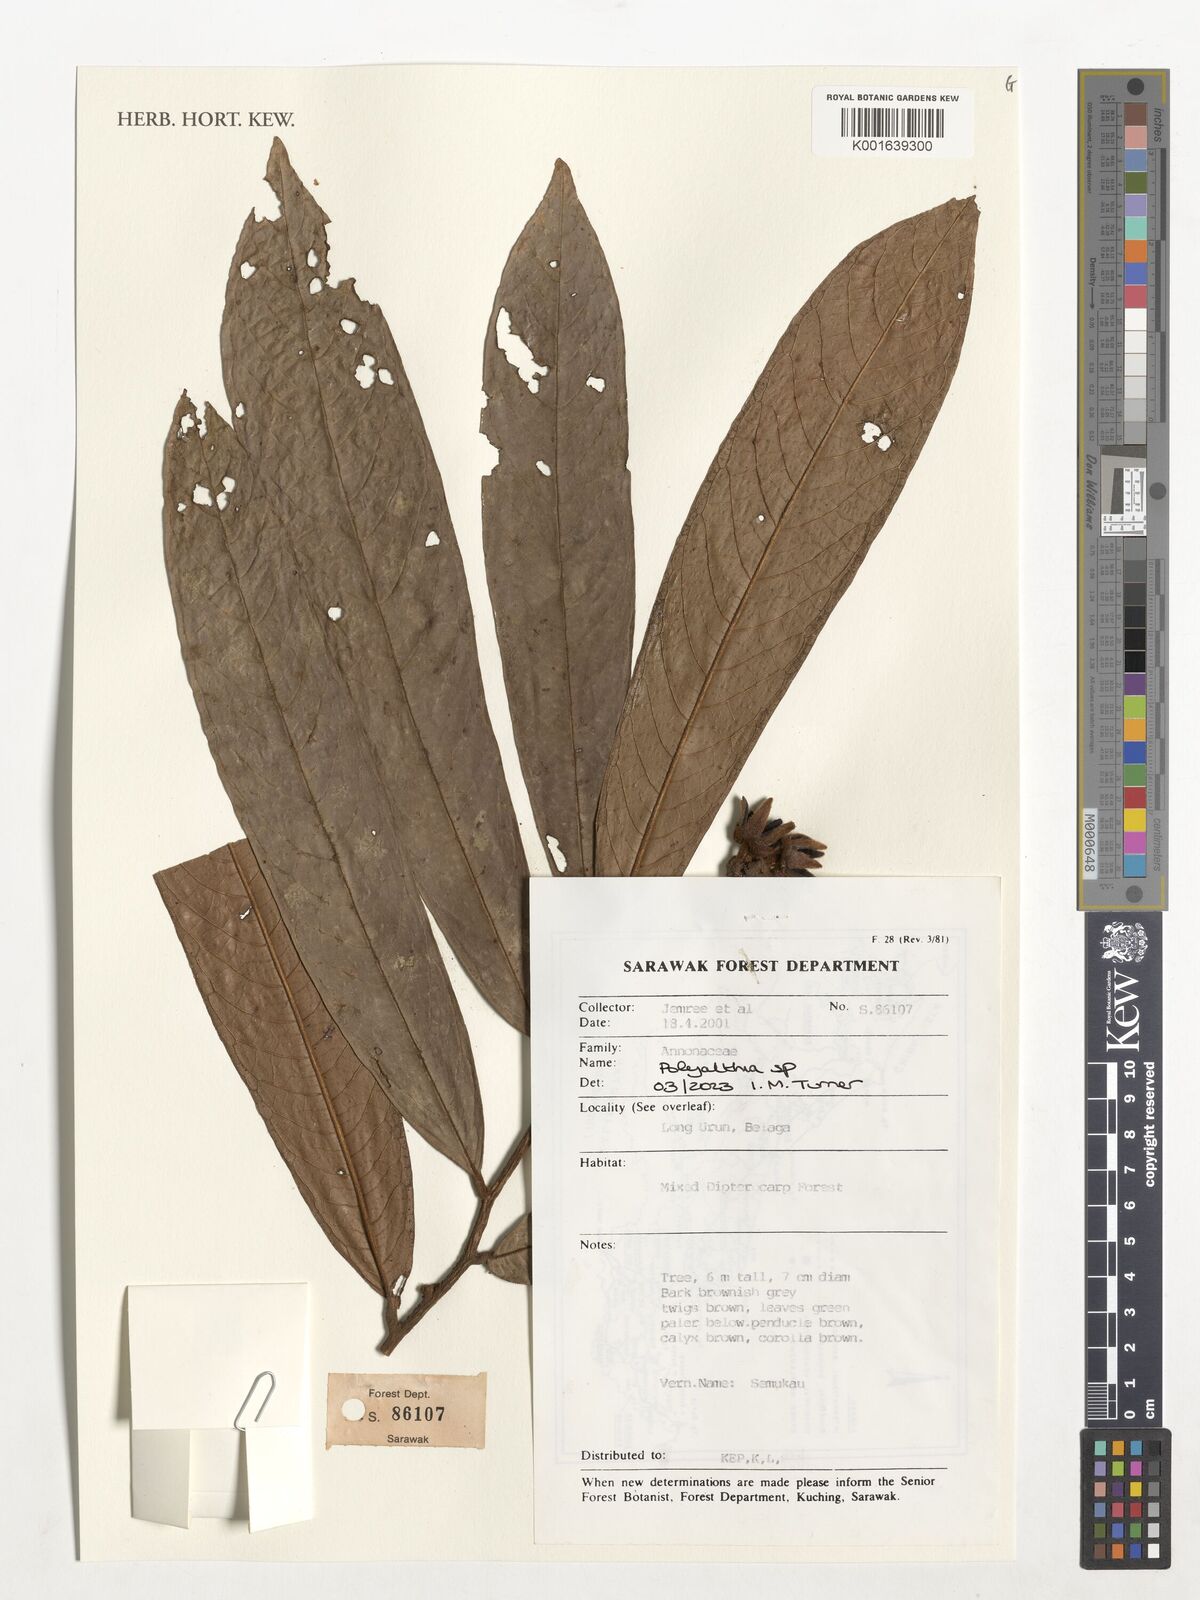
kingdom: Plantae
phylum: Tracheophyta
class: Magnoliopsida
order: Magnoliales
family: Annonaceae
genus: Polyalthia
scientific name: Polyalthia
